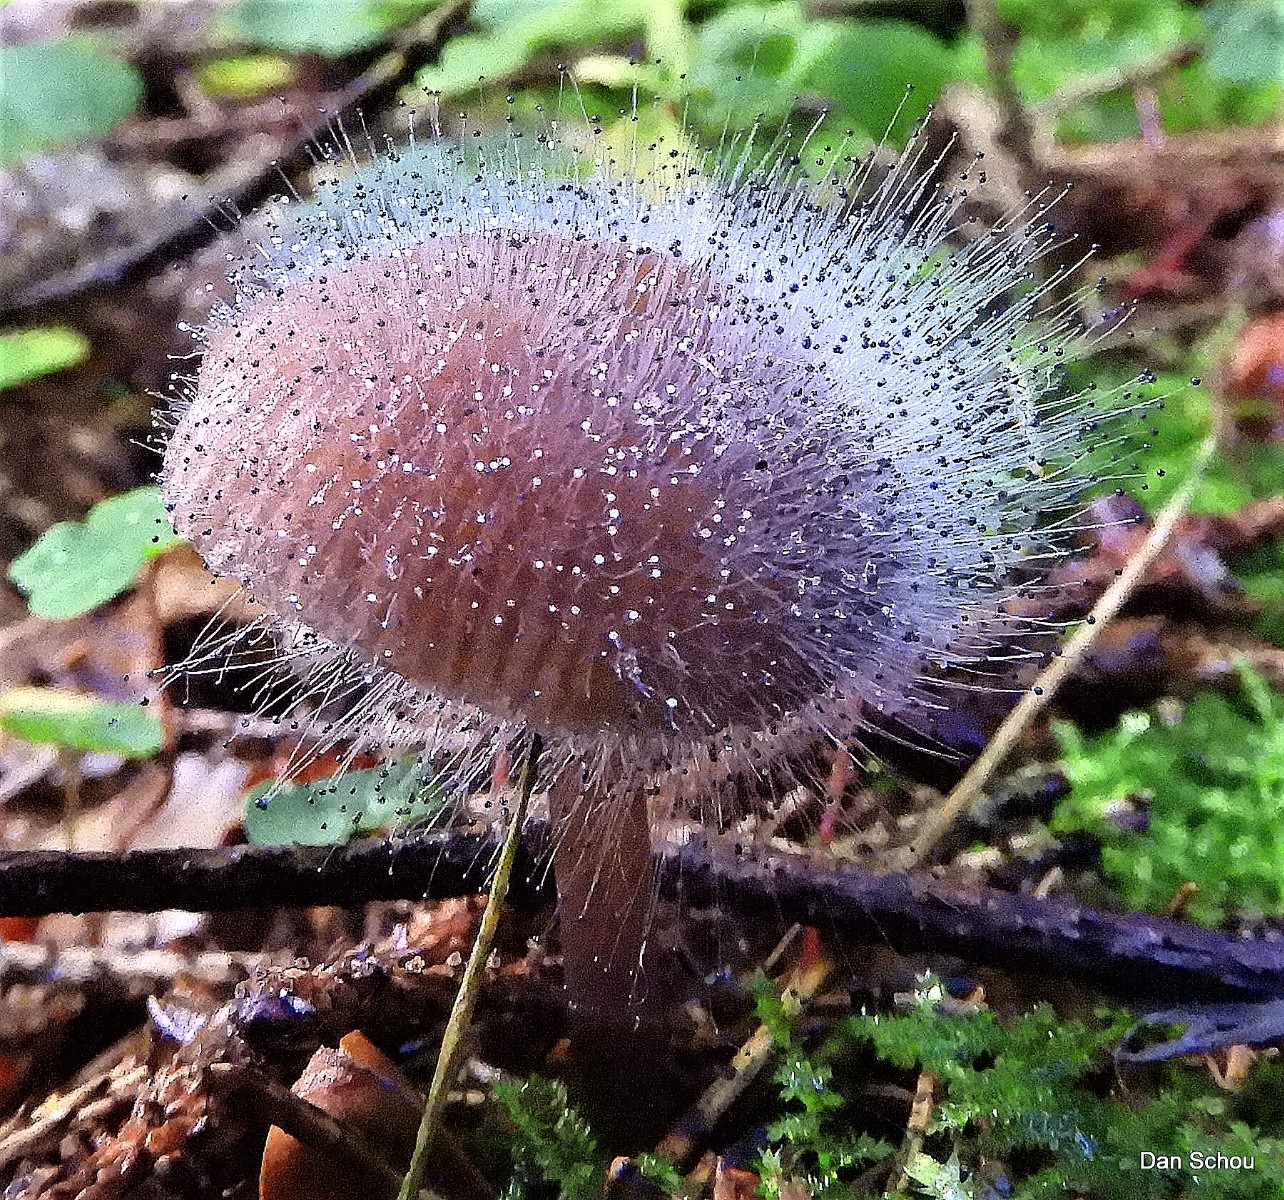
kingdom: Fungi
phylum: Mucoromycota
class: Mucoromycetes
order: Mucorales
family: Phycomycetaceae
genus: Spinellus
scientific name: Spinellus fusiger
